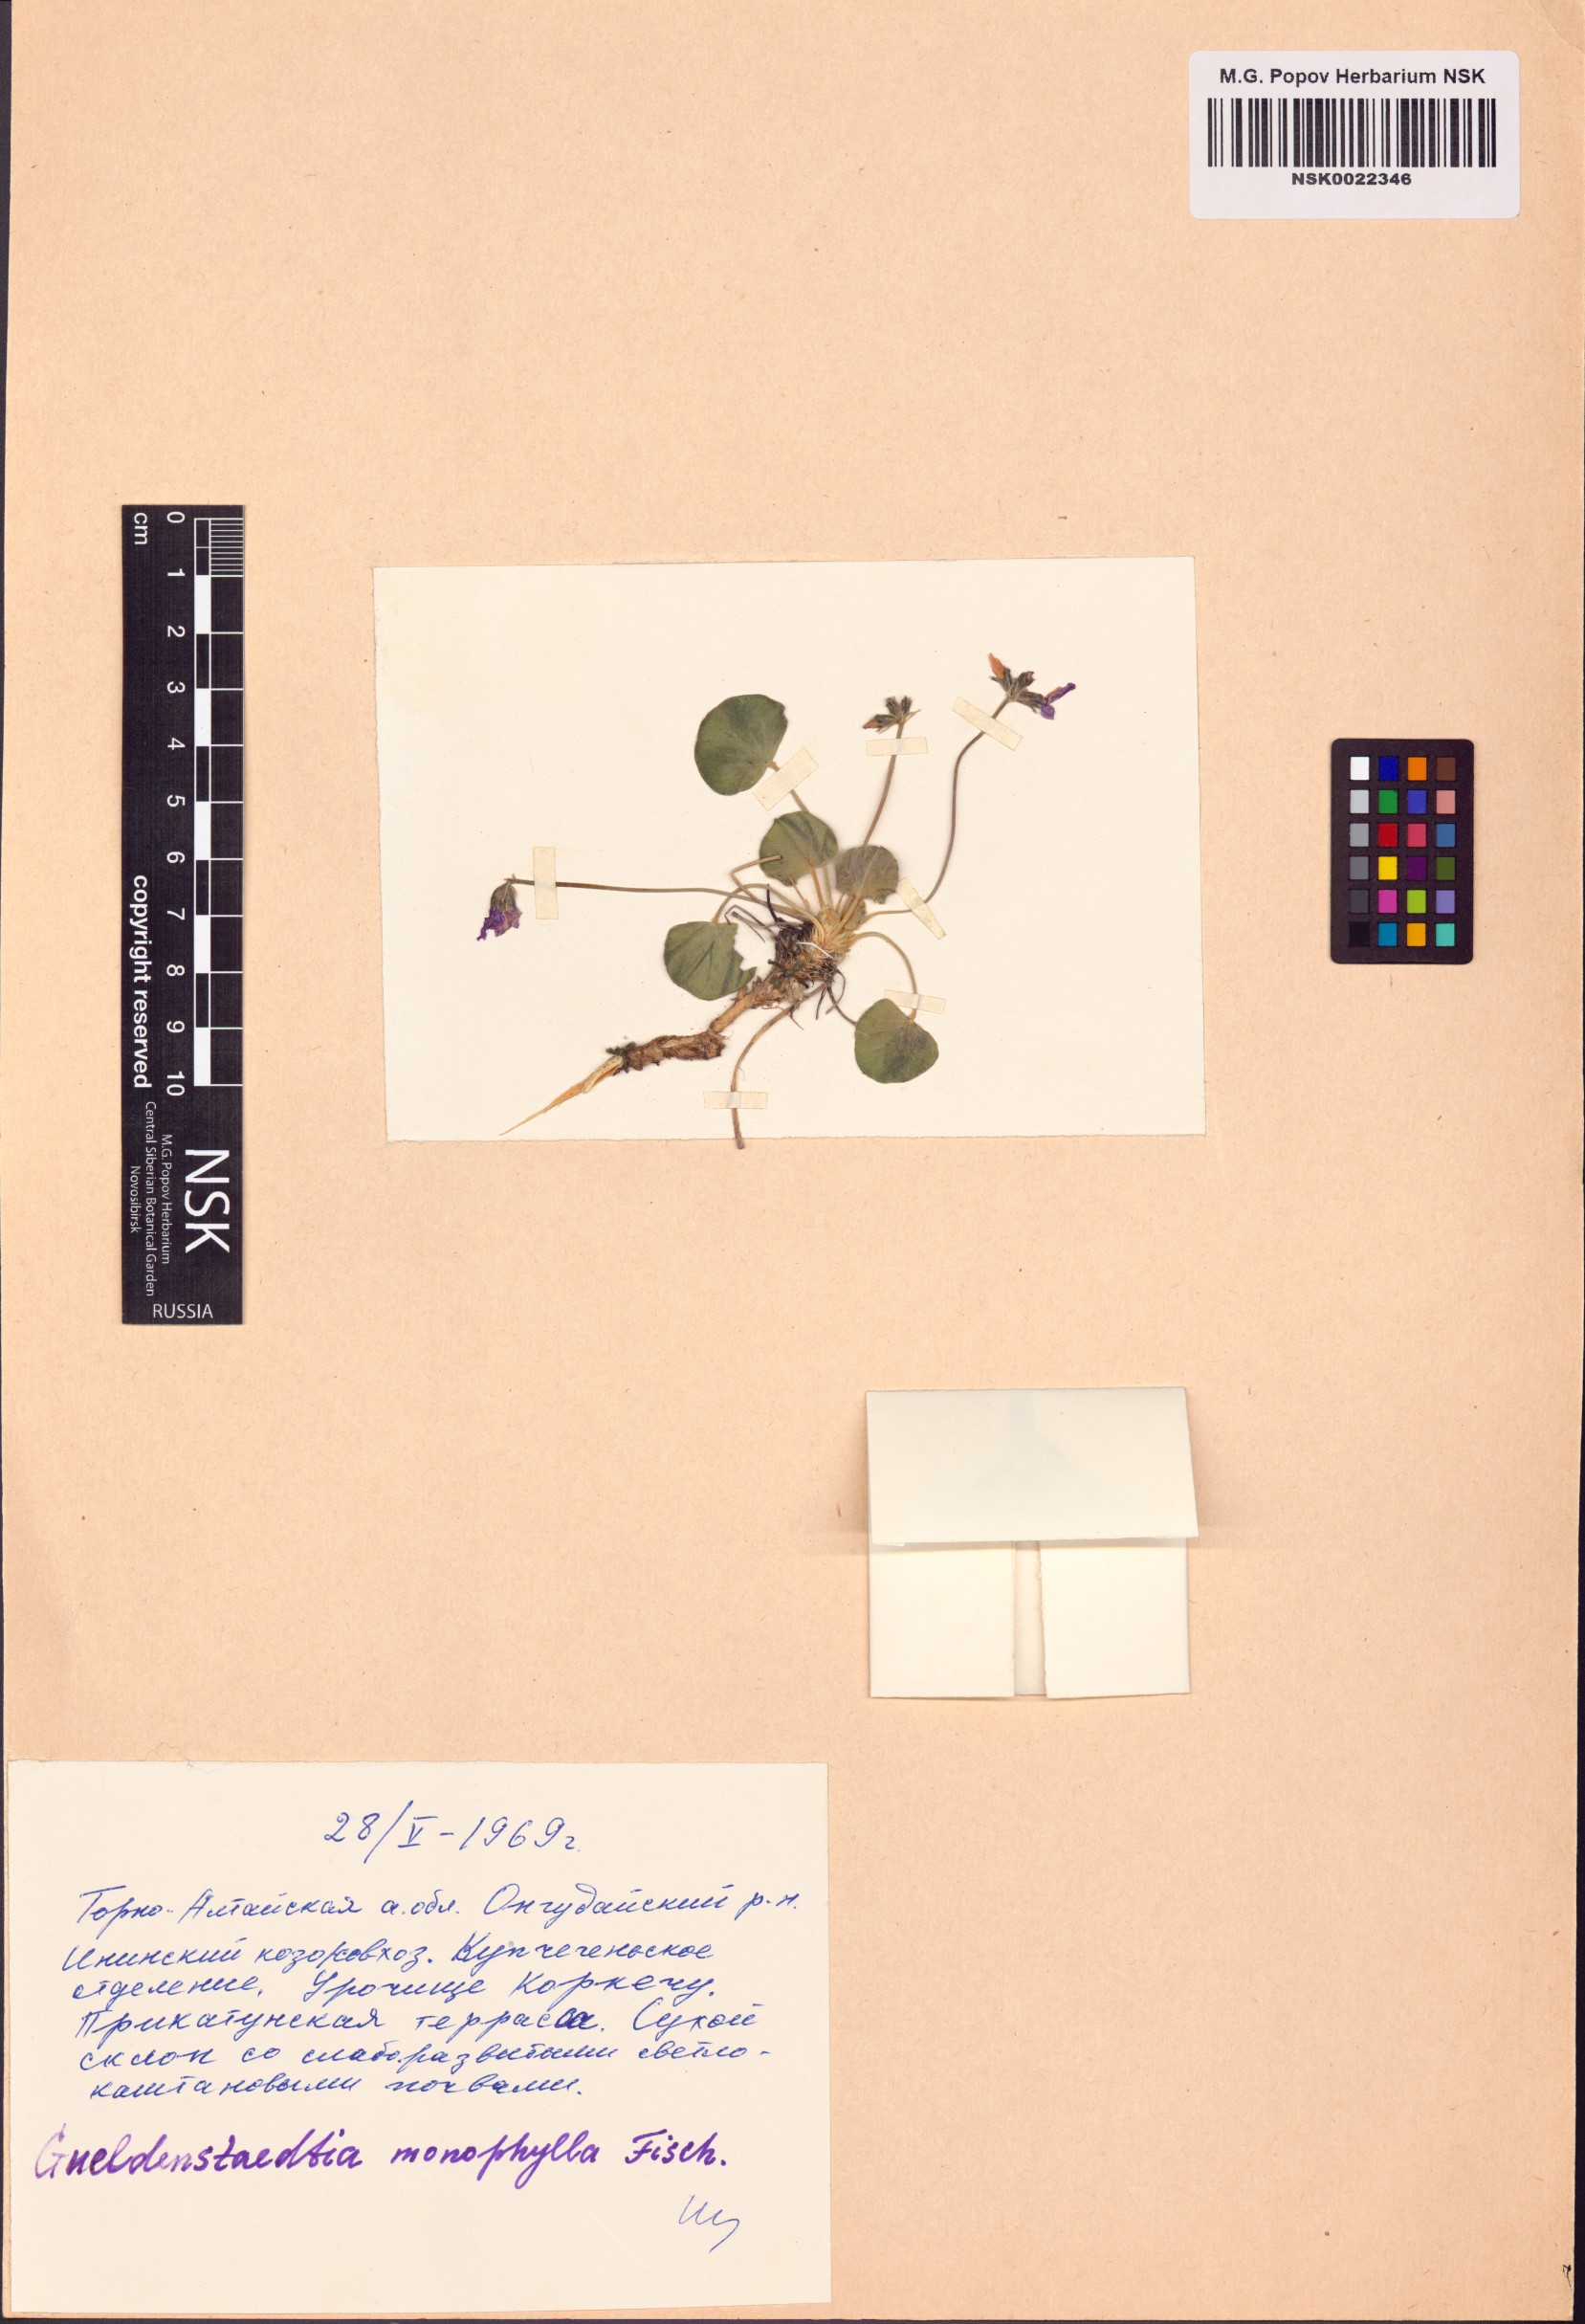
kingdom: Plantae
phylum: Tracheophyta
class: Magnoliopsida
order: Fabales
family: Fabaceae
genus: Gueldenstaedtia
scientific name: Gueldenstaedtia monophylla
